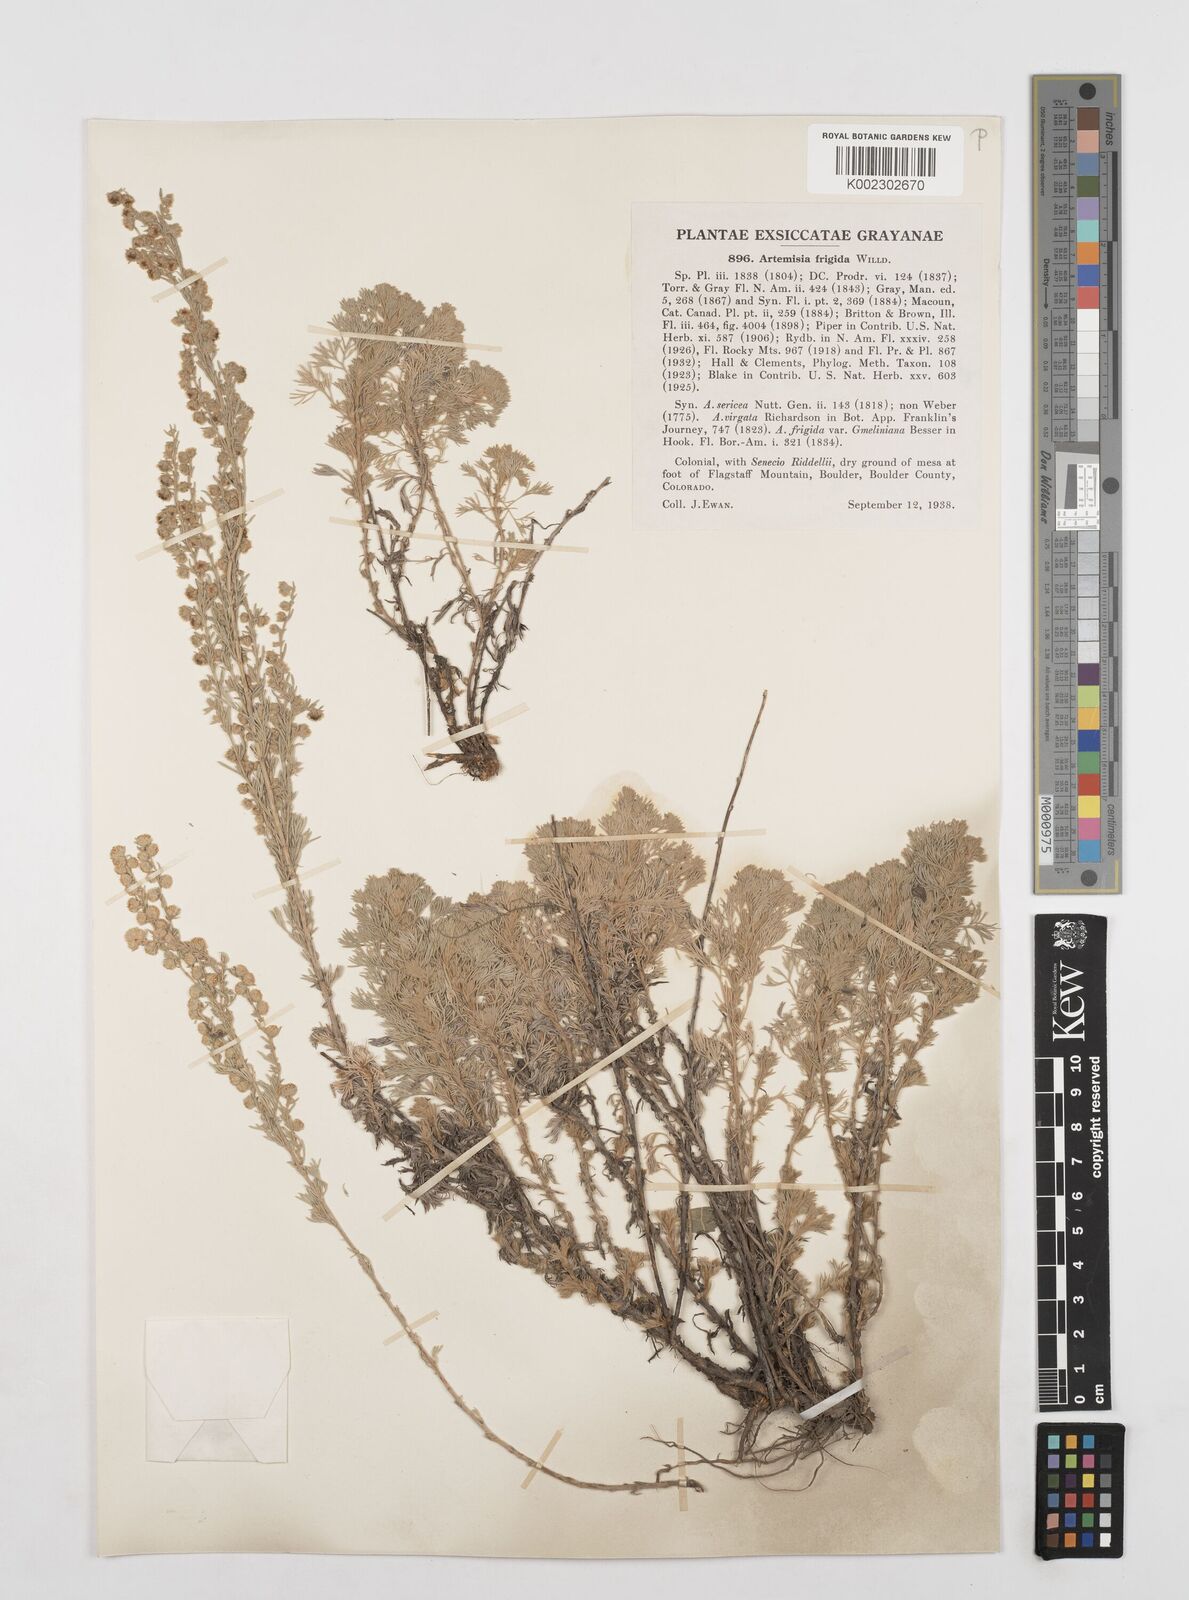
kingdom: Plantae
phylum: Tracheophyta
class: Magnoliopsida
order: Asterales
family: Asteraceae
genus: Artemisia
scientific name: Artemisia frigida
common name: Prairie sagewort
